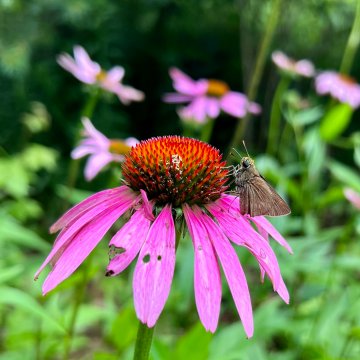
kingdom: Animalia
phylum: Arthropoda
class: Insecta
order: Lepidoptera
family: Hesperiidae
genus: Euphyes
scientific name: Euphyes vestris
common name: Dun Skipper
